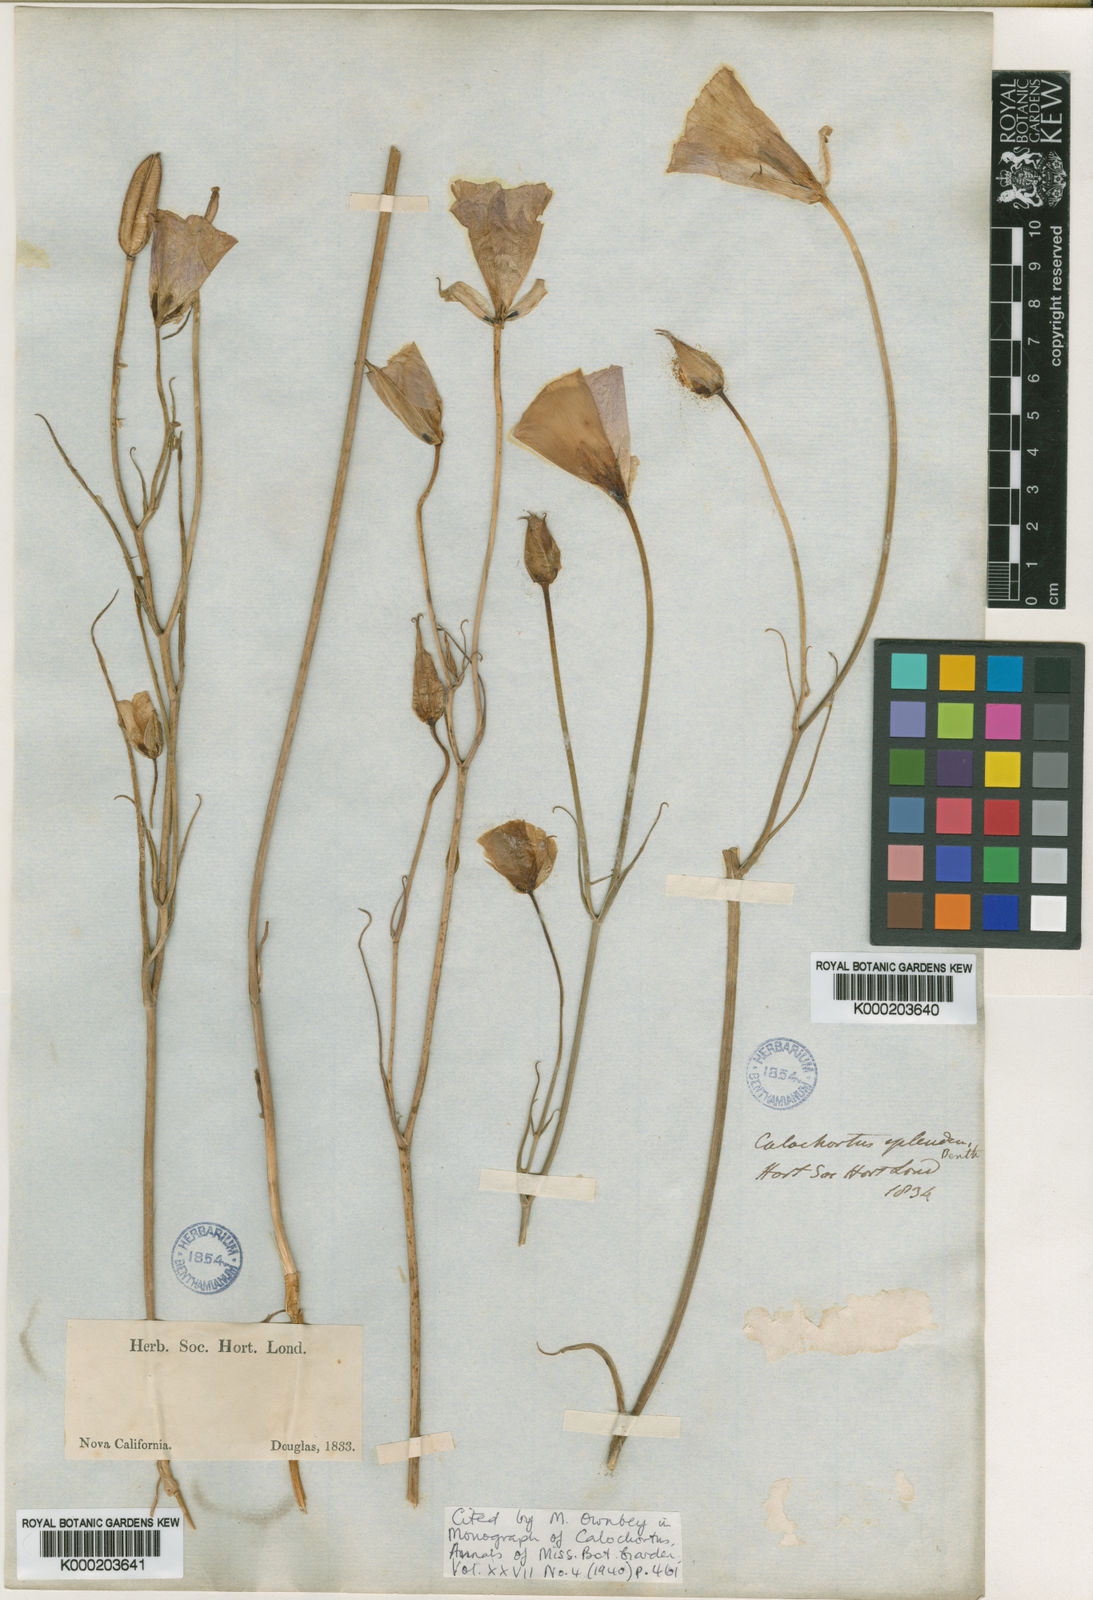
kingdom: Plantae
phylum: Tracheophyta
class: Liliopsida
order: Liliales
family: Liliaceae
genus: Calochortus
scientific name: Calochortus splendens
